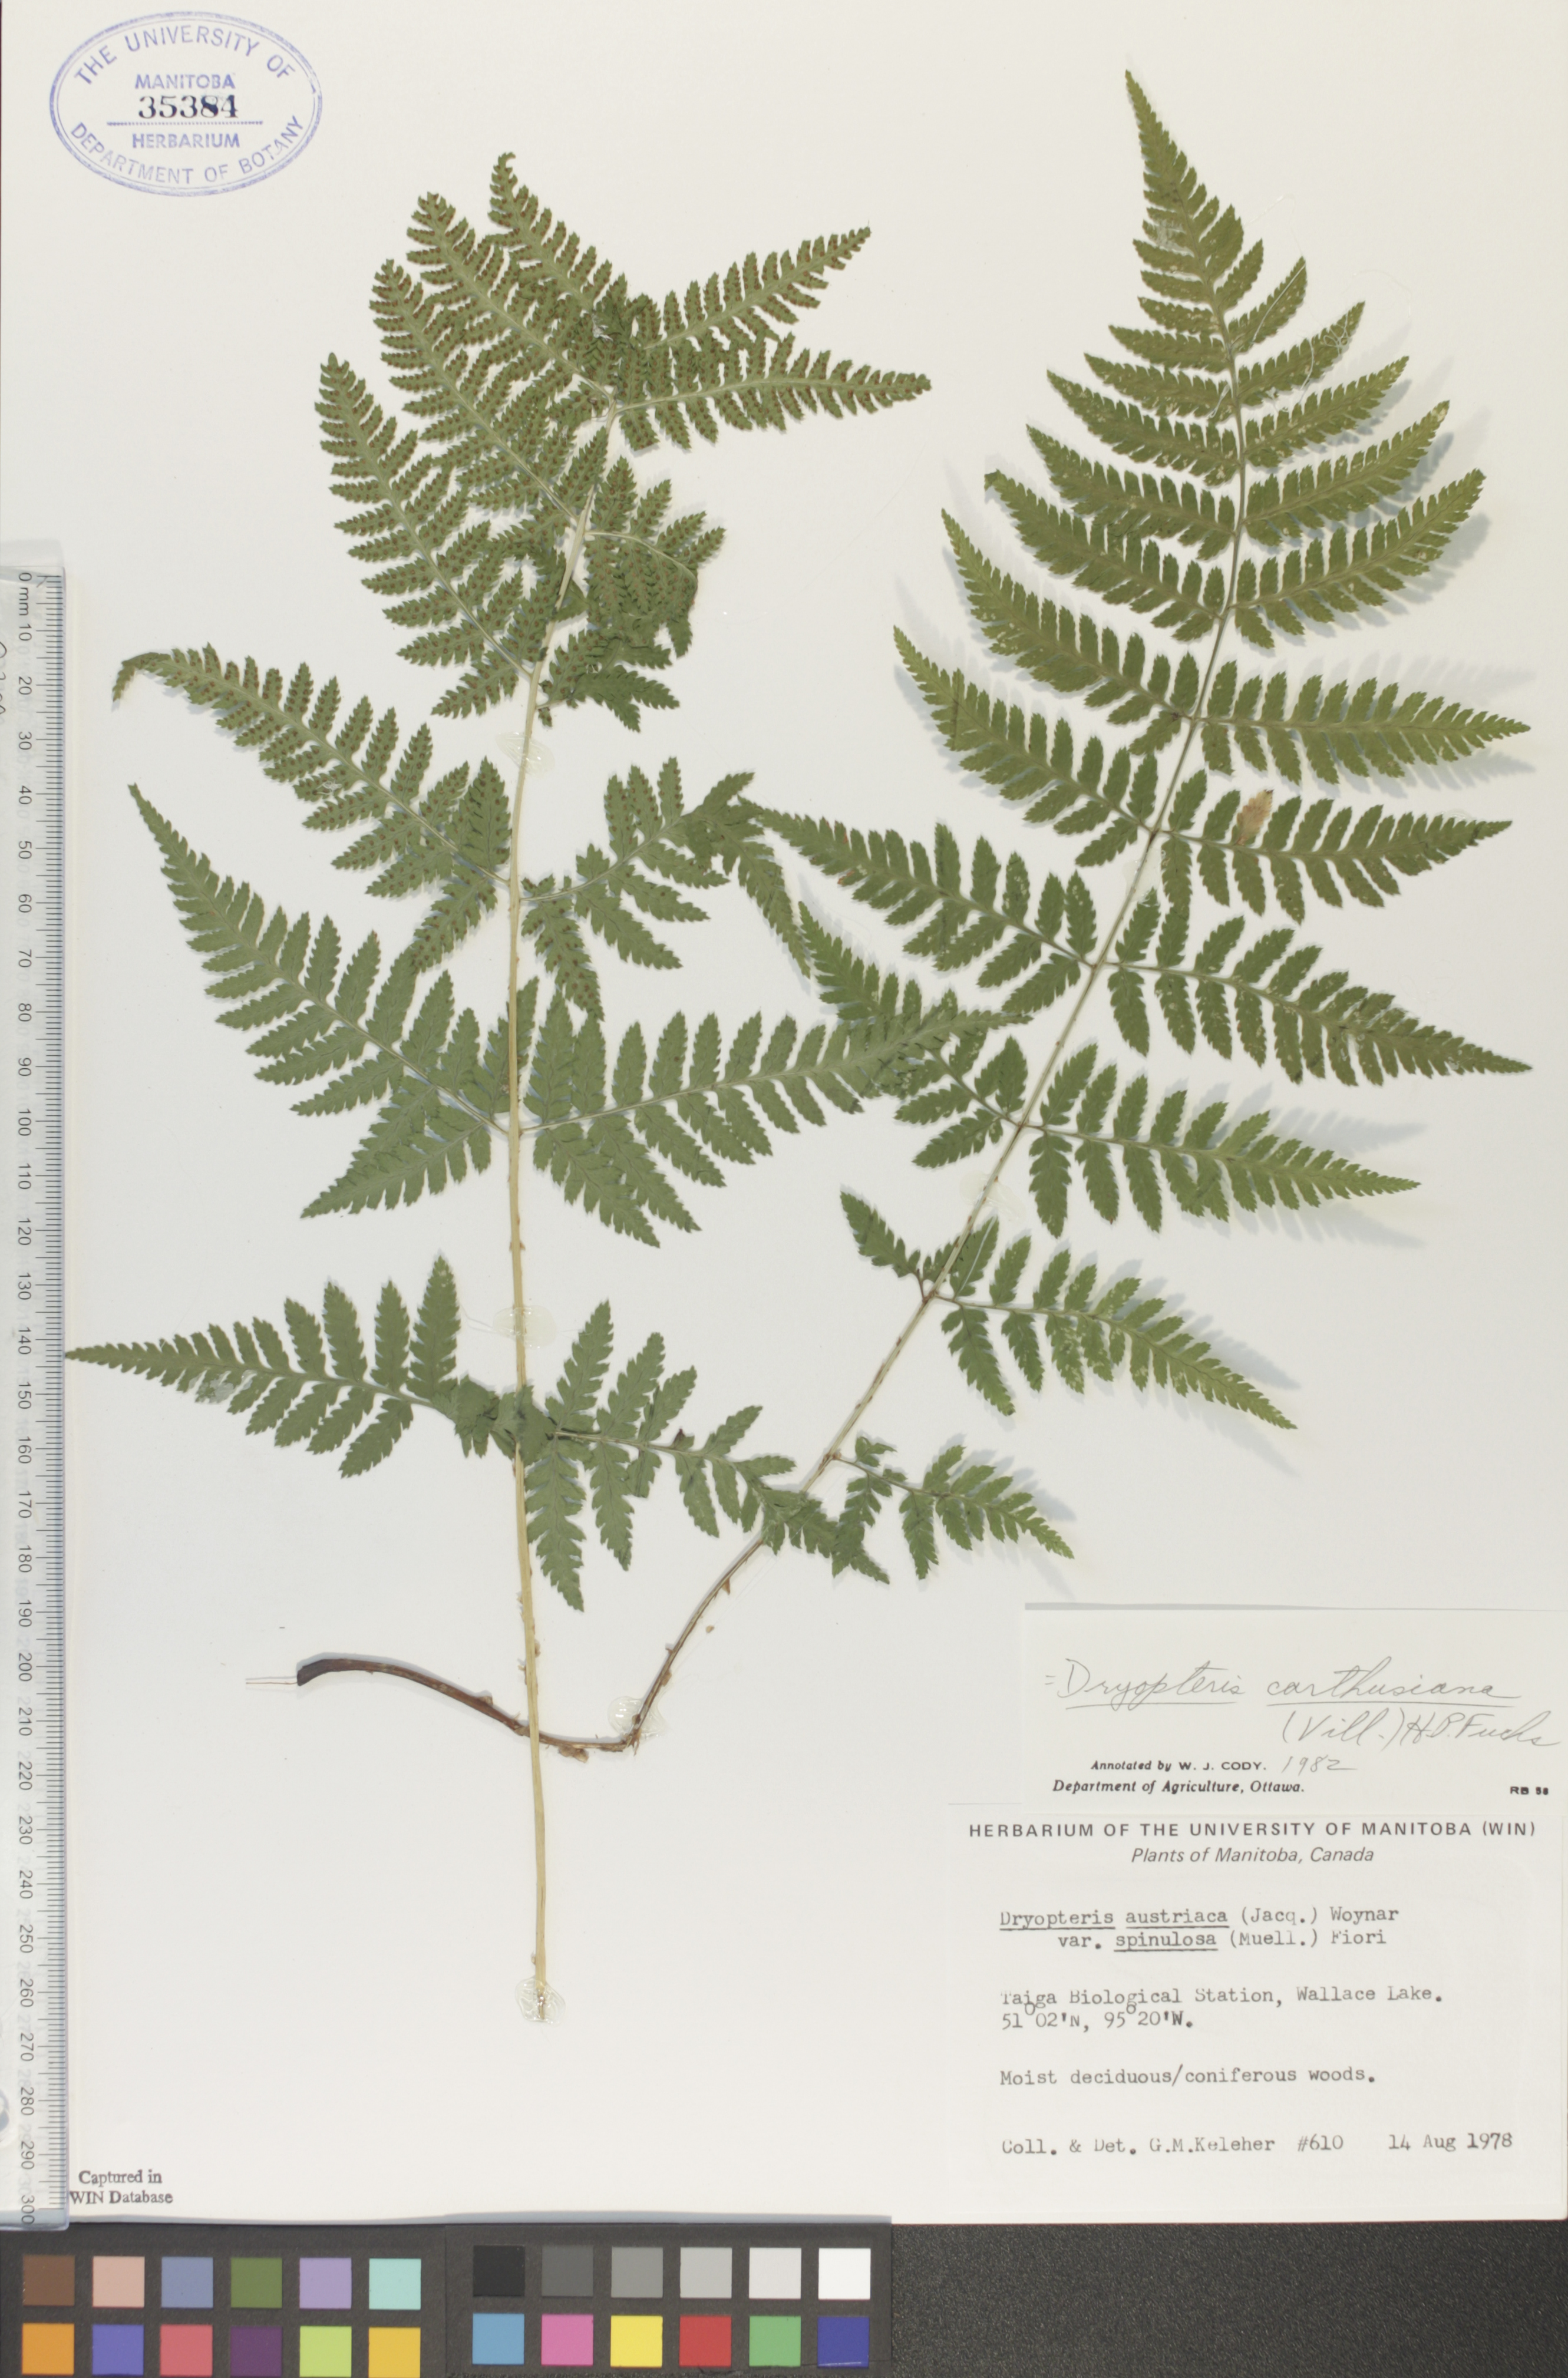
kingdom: Plantae
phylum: Tracheophyta
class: Polypodiopsida
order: Polypodiales
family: Dryopteridaceae
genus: Dryopteris
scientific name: Dryopteris carthusiana
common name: Narrow buckler-fern
